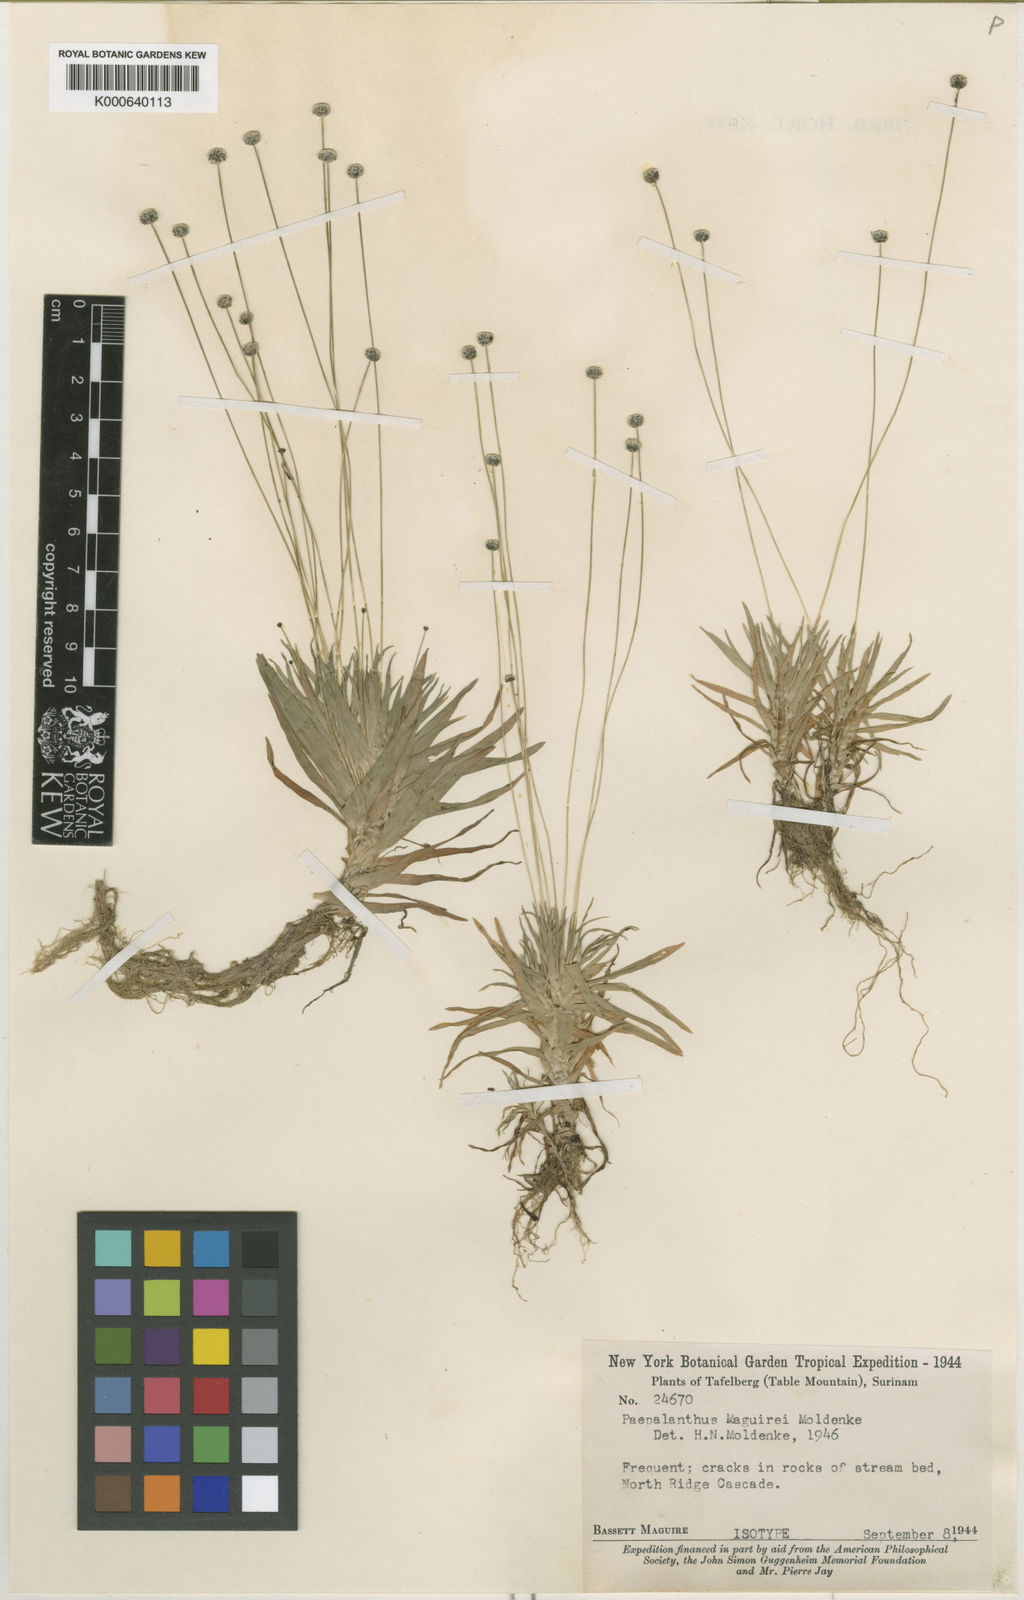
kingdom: Plantae
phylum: Tracheophyta
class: Liliopsida
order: Poales
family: Eriocaulaceae
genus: Paepalanthus
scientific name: Paepalanthus tortilis
